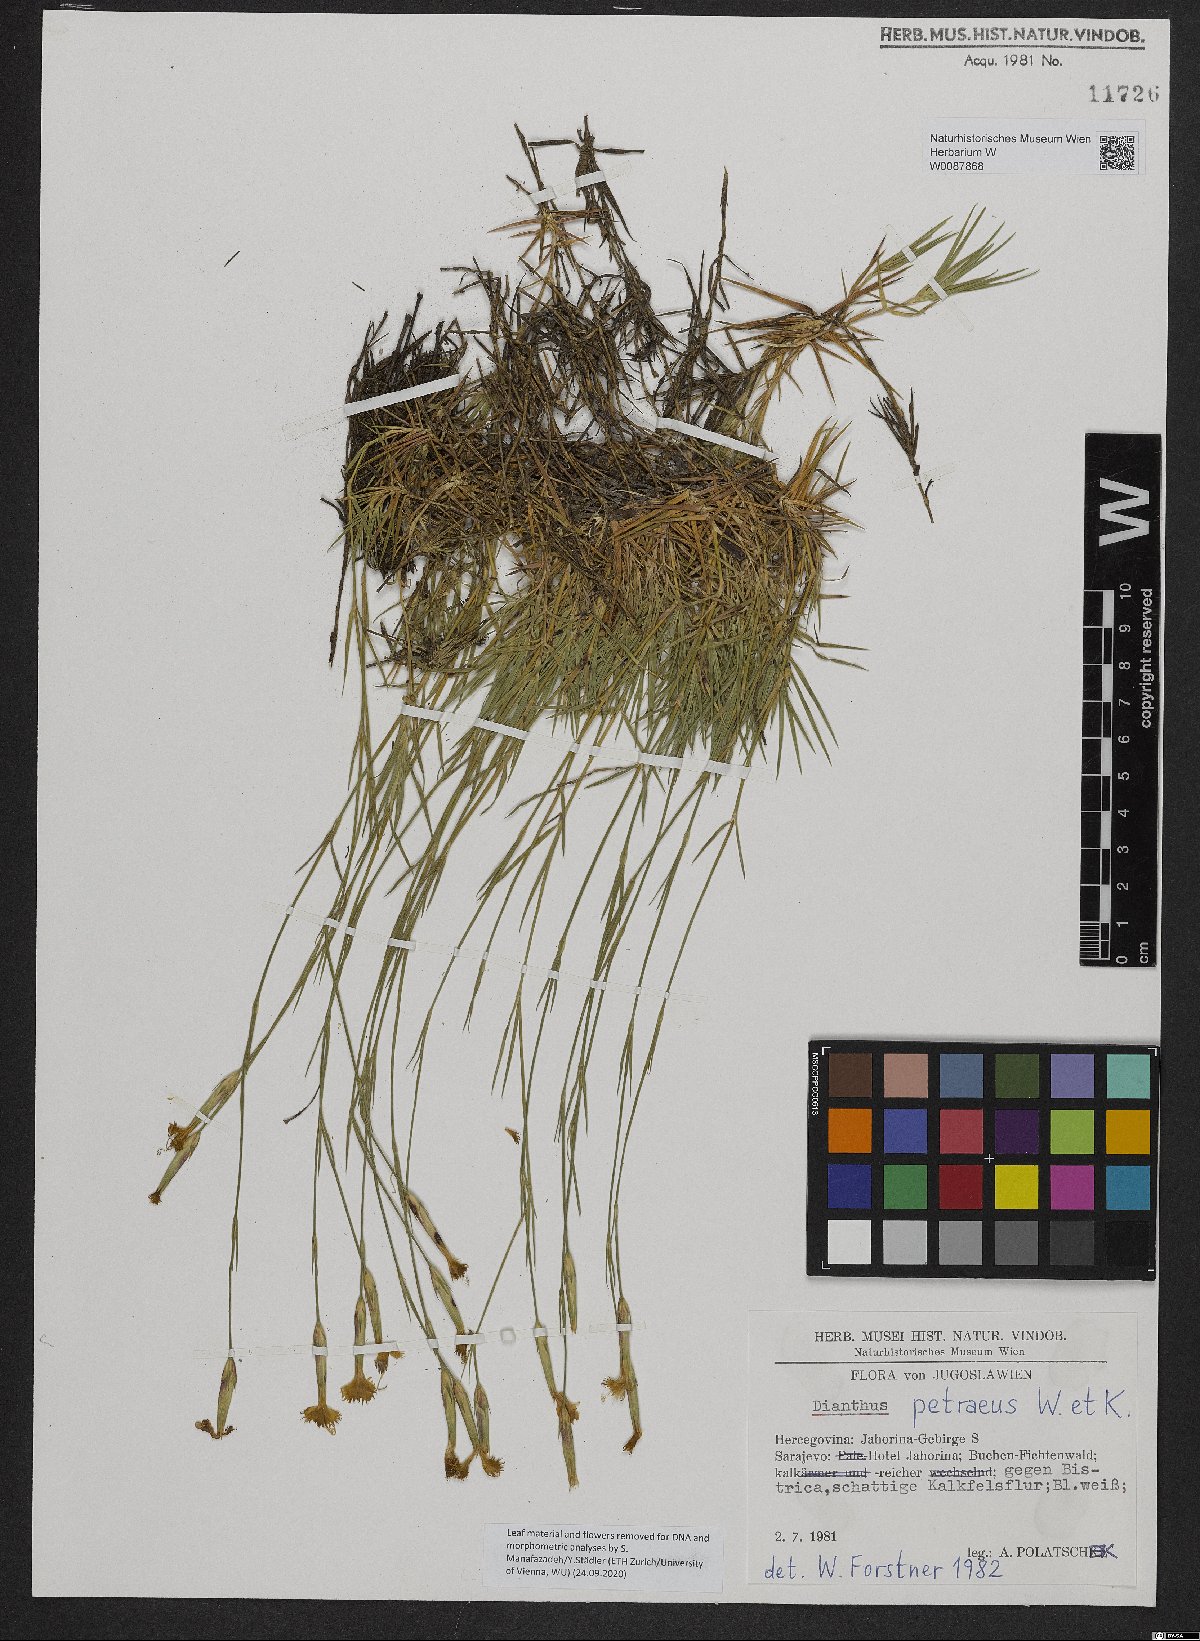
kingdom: Plantae
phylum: Tracheophyta
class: Magnoliopsida
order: Caryophyllales
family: Caryophyllaceae
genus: Dianthus
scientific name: Dianthus petraeus
